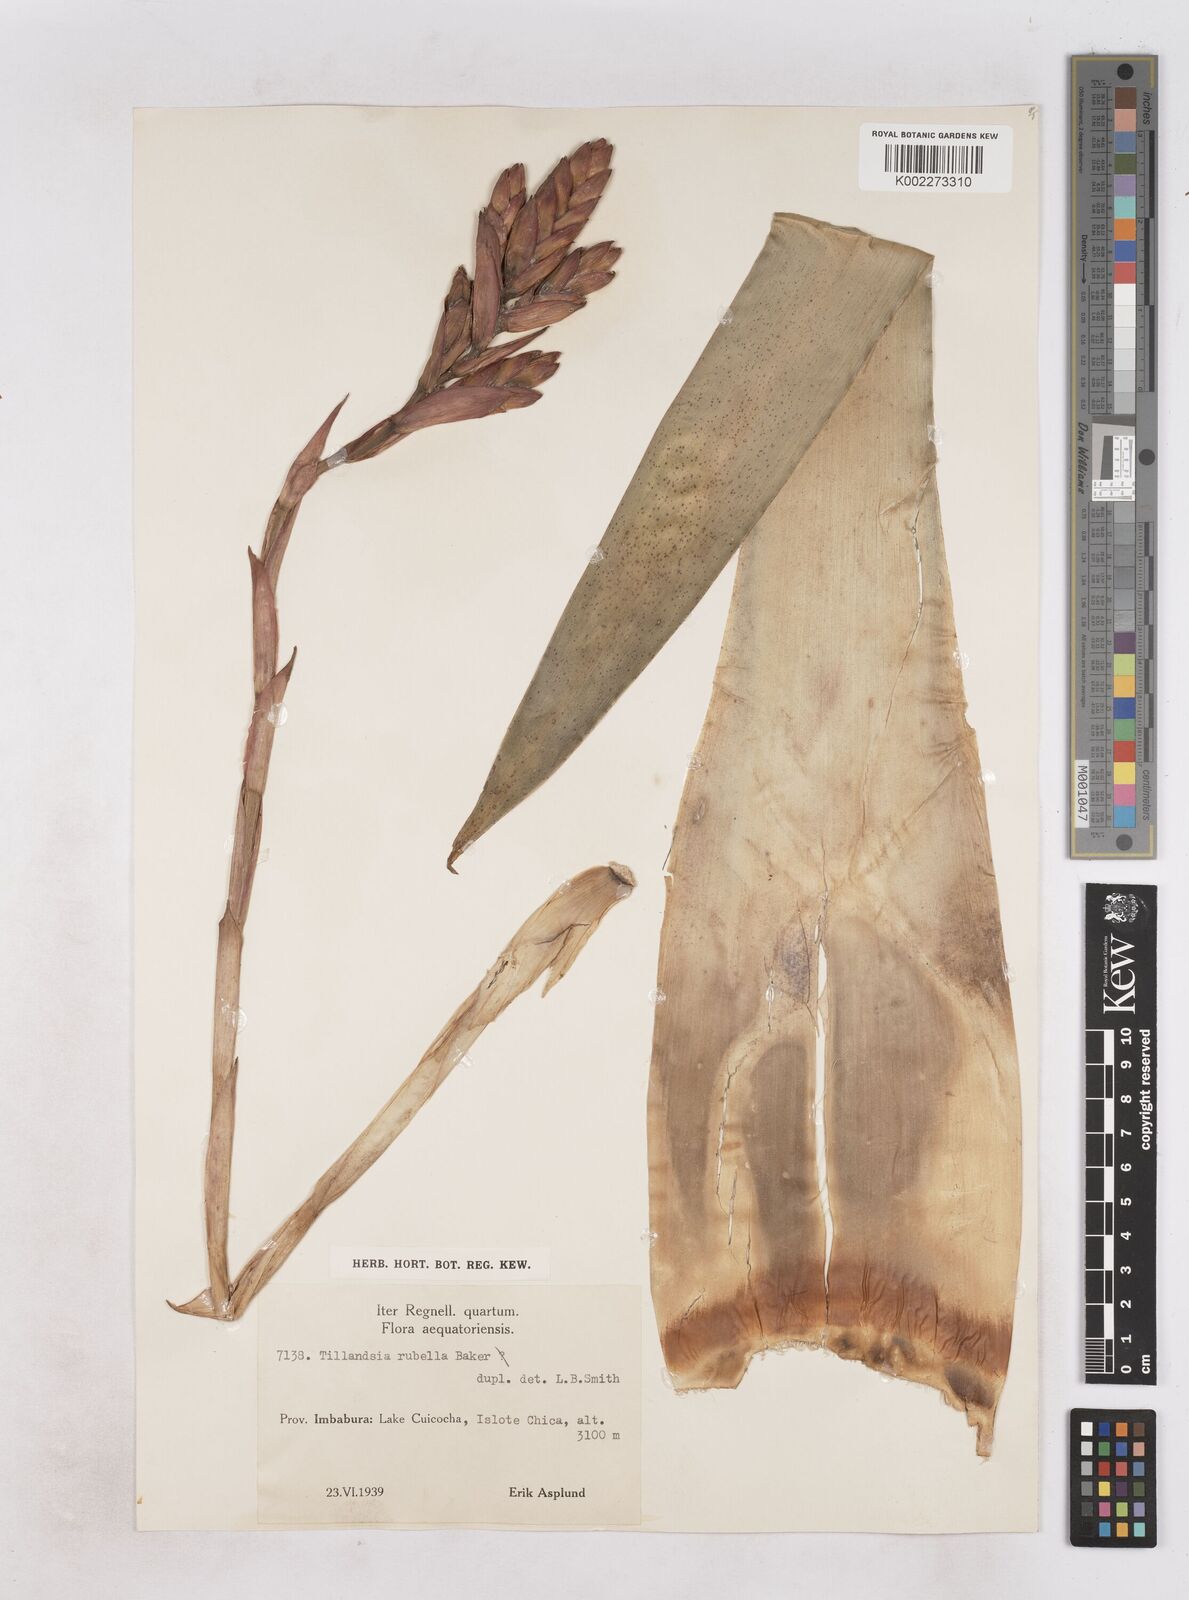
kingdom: Plantae
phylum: Tracheophyta
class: Liliopsida
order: Poales
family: Bromeliaceae
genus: Tillandsia
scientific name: Tillandsia rubella
